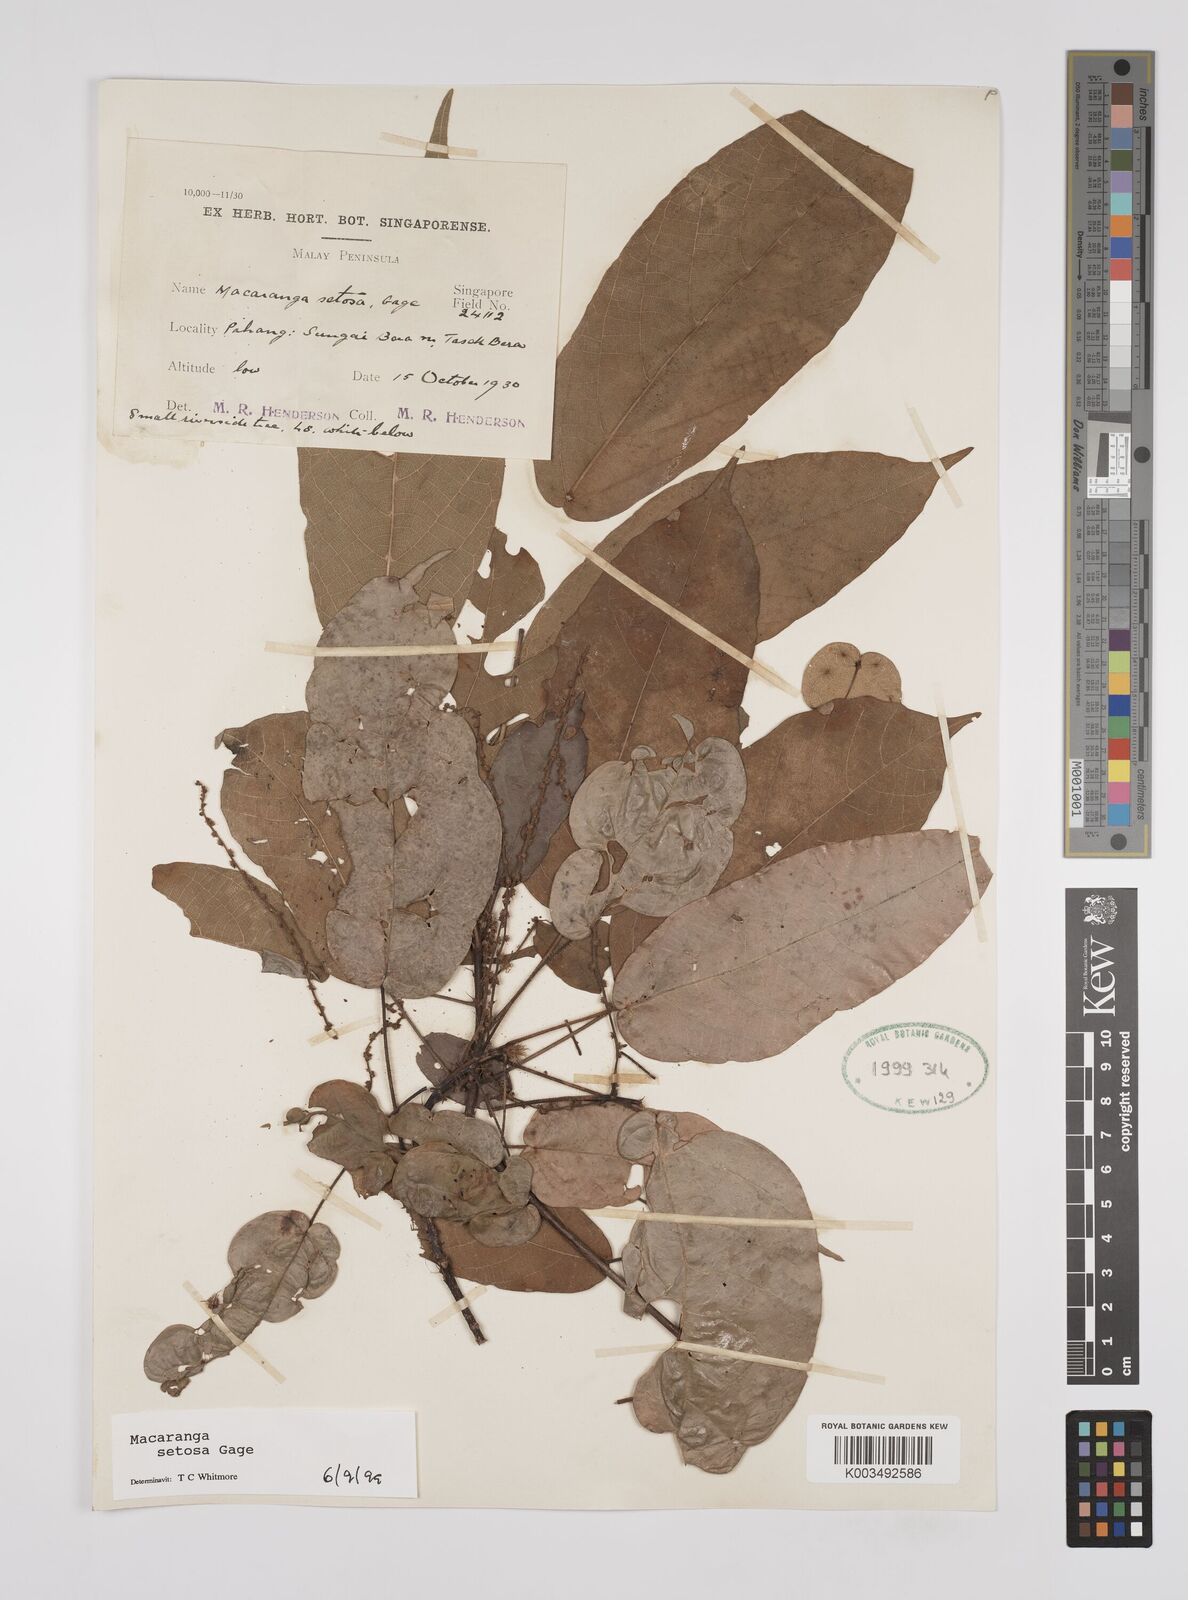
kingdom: Plantae
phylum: Tracheophyta
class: Magnoliopsida
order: Malpighiales
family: Euphorbiaceae
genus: Macaranga
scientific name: Macaranga setosa
